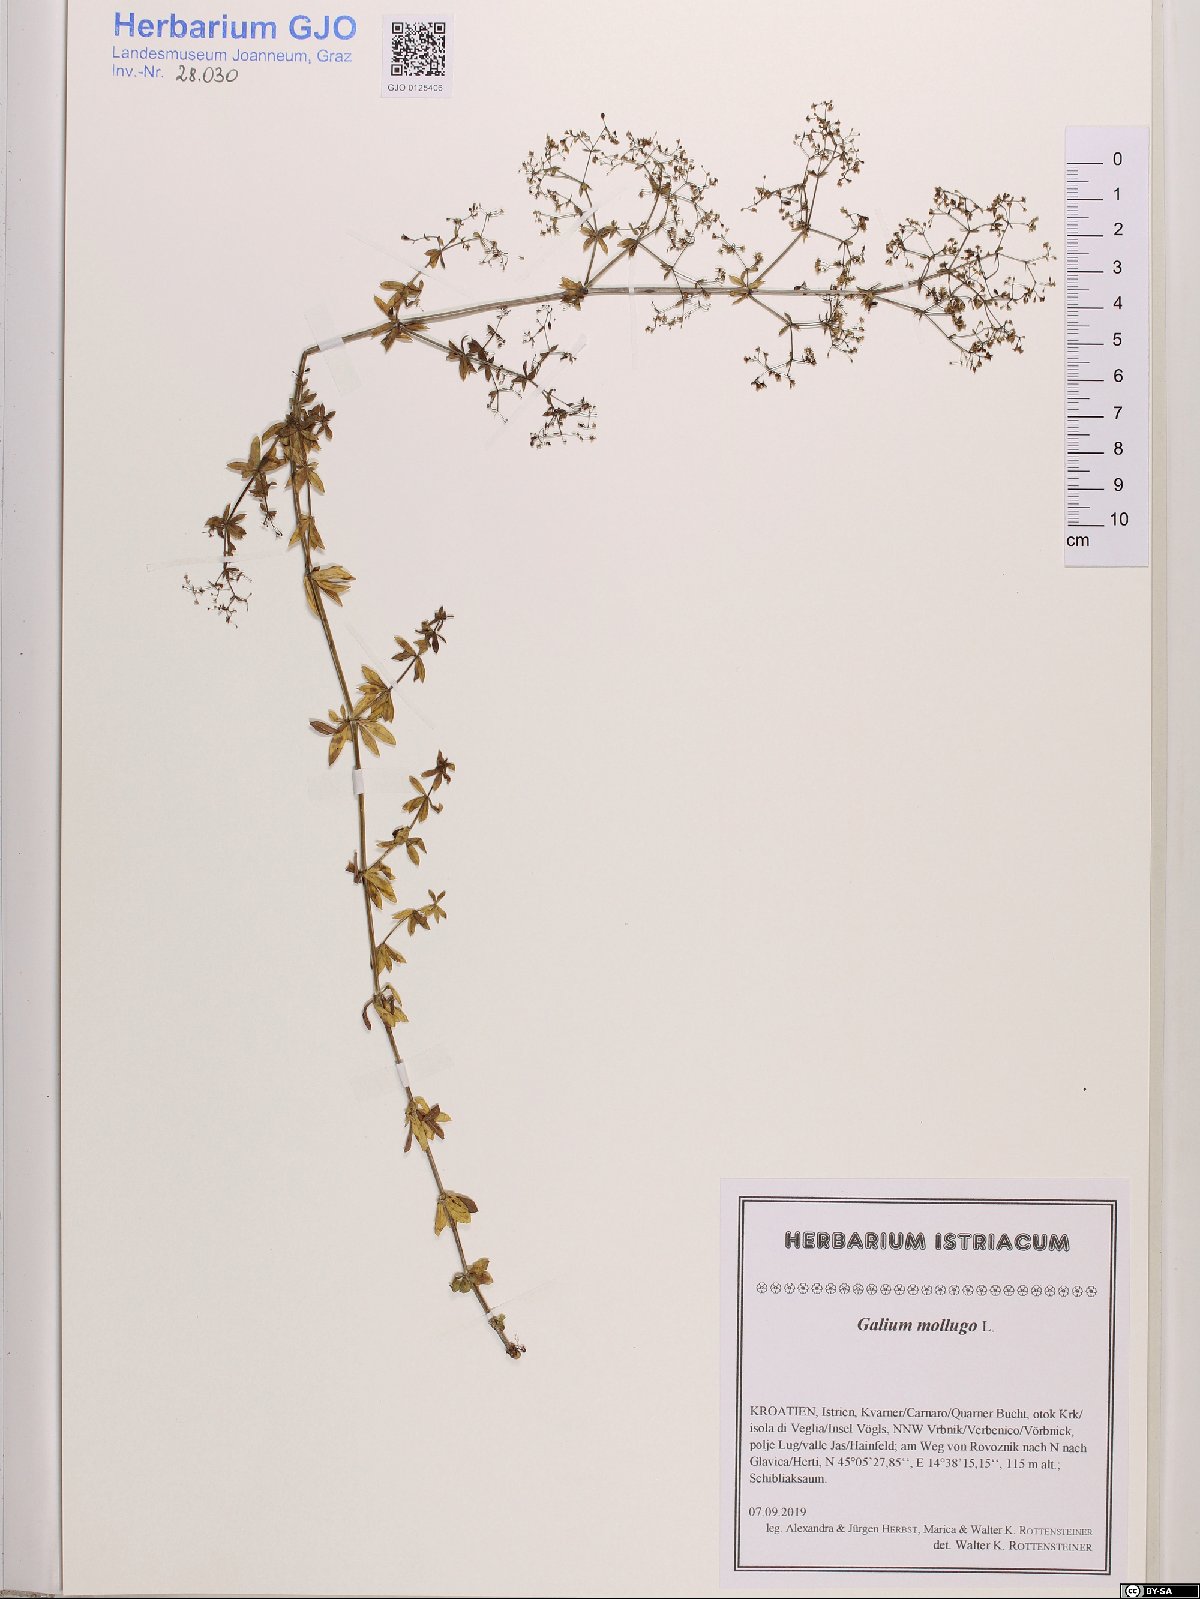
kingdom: Plantae
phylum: Tracheophyta
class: Magnoliopsida
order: Gentianales
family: Rubiaceae
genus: Galium
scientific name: Galium mollugo
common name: Hedge bedstraw
